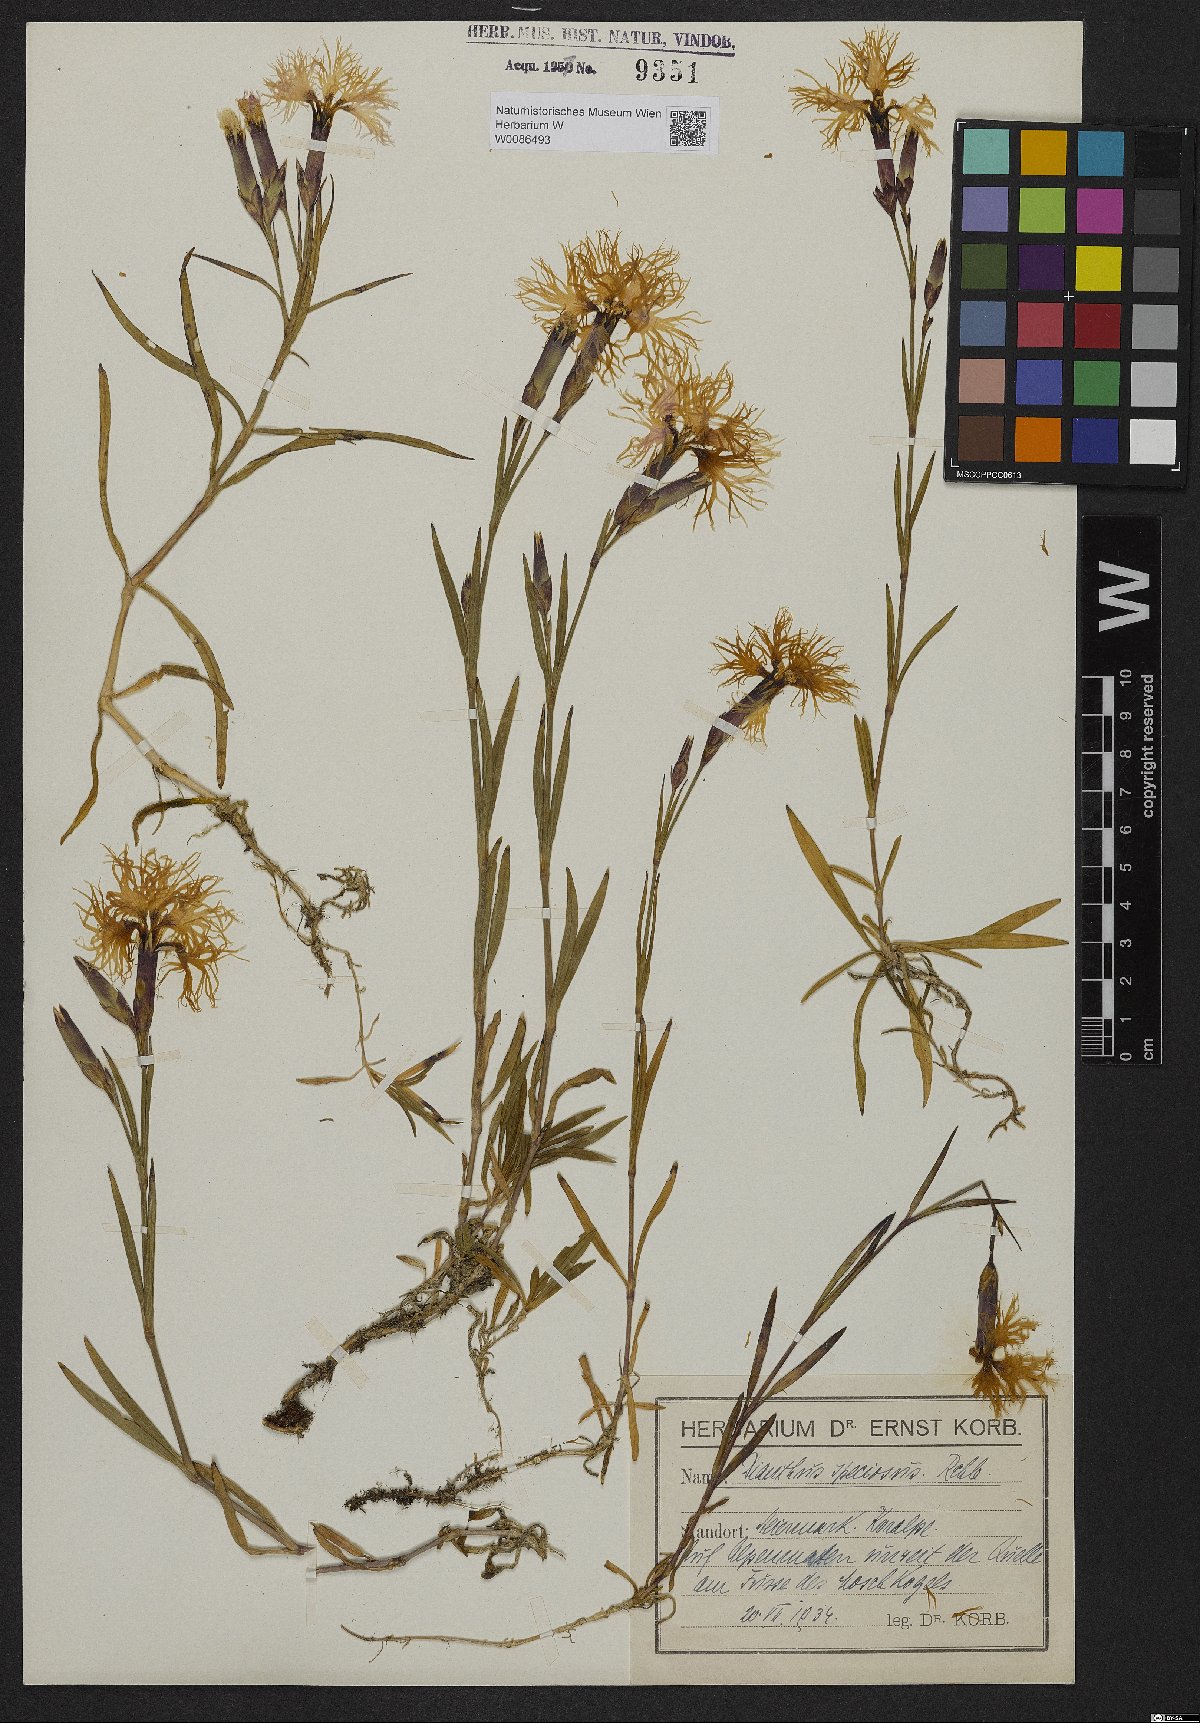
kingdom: Plantae
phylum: Tracheophyta
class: Magnoliopsida
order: Caryophyllales
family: Caryophyllaceae
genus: Dianthus
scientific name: Dianthus superbus
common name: Fringed pink
